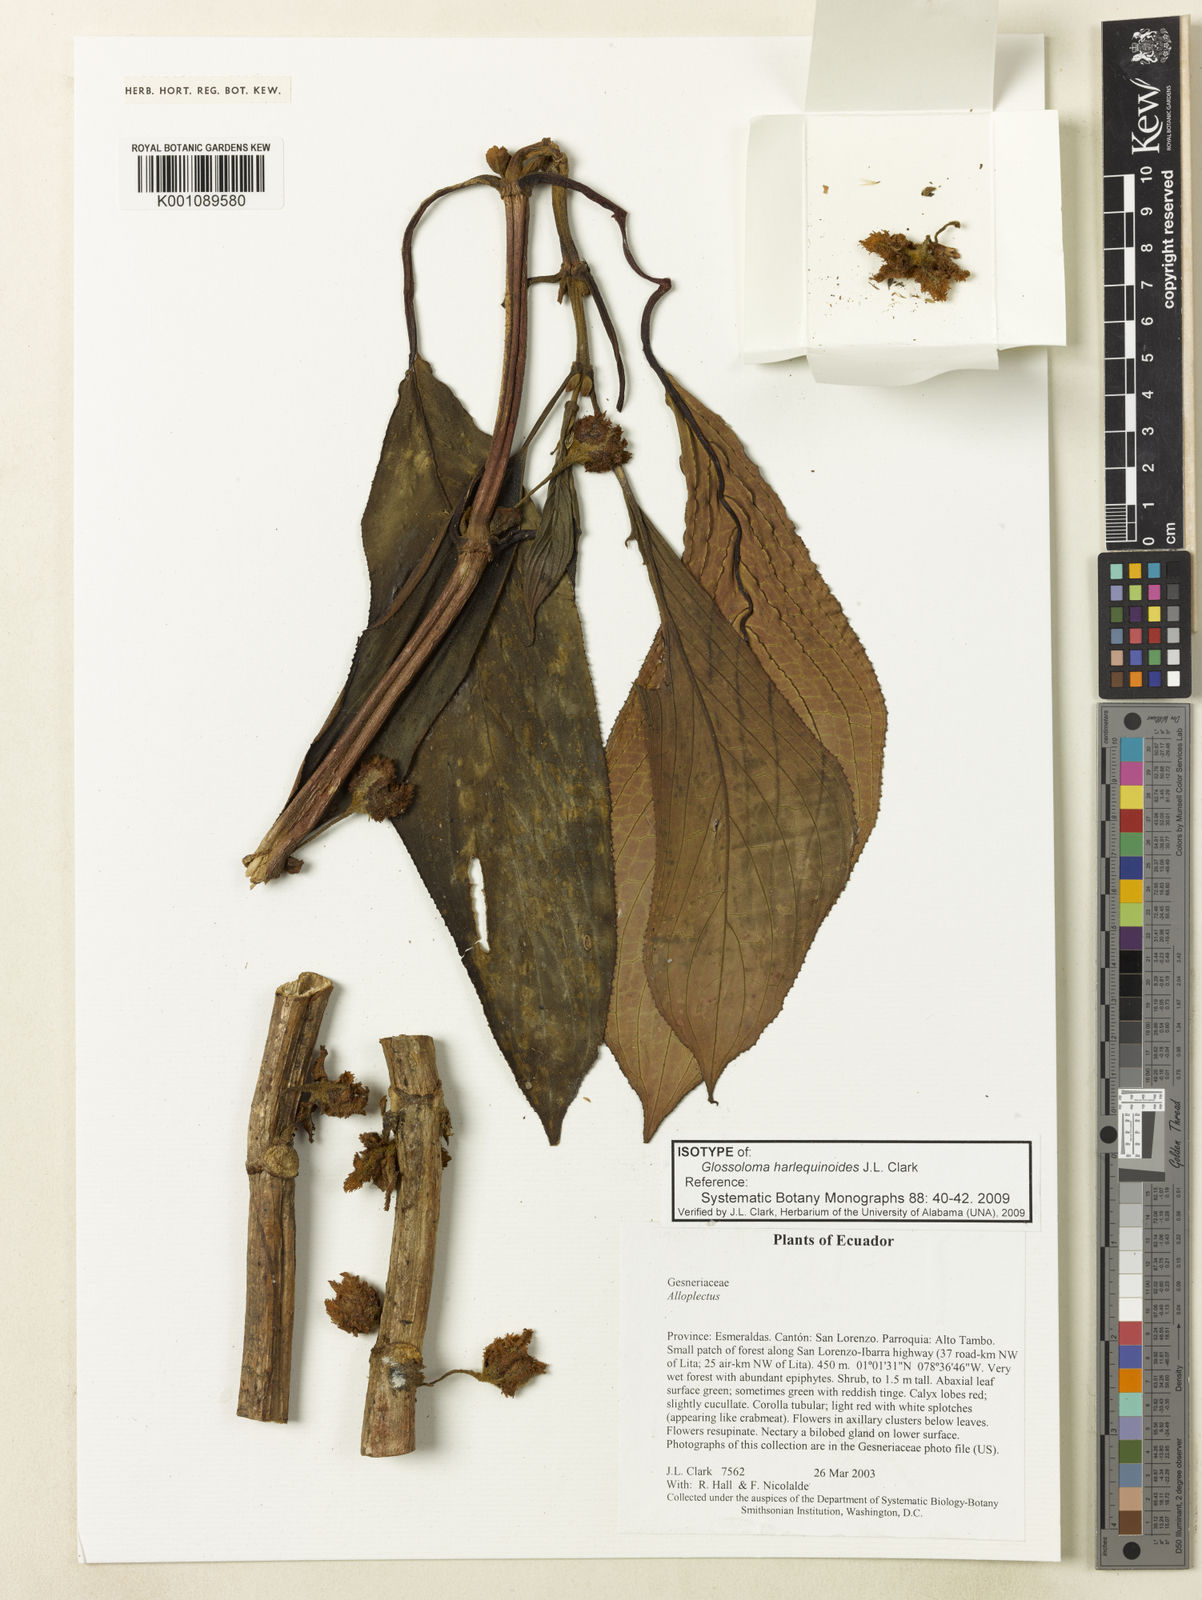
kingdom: Plantae
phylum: Tracheophyta
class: Magnoliopsida
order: Lamiales
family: Gesneriaceae
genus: Glossoloma
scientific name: Glossoloma harlequinoides
